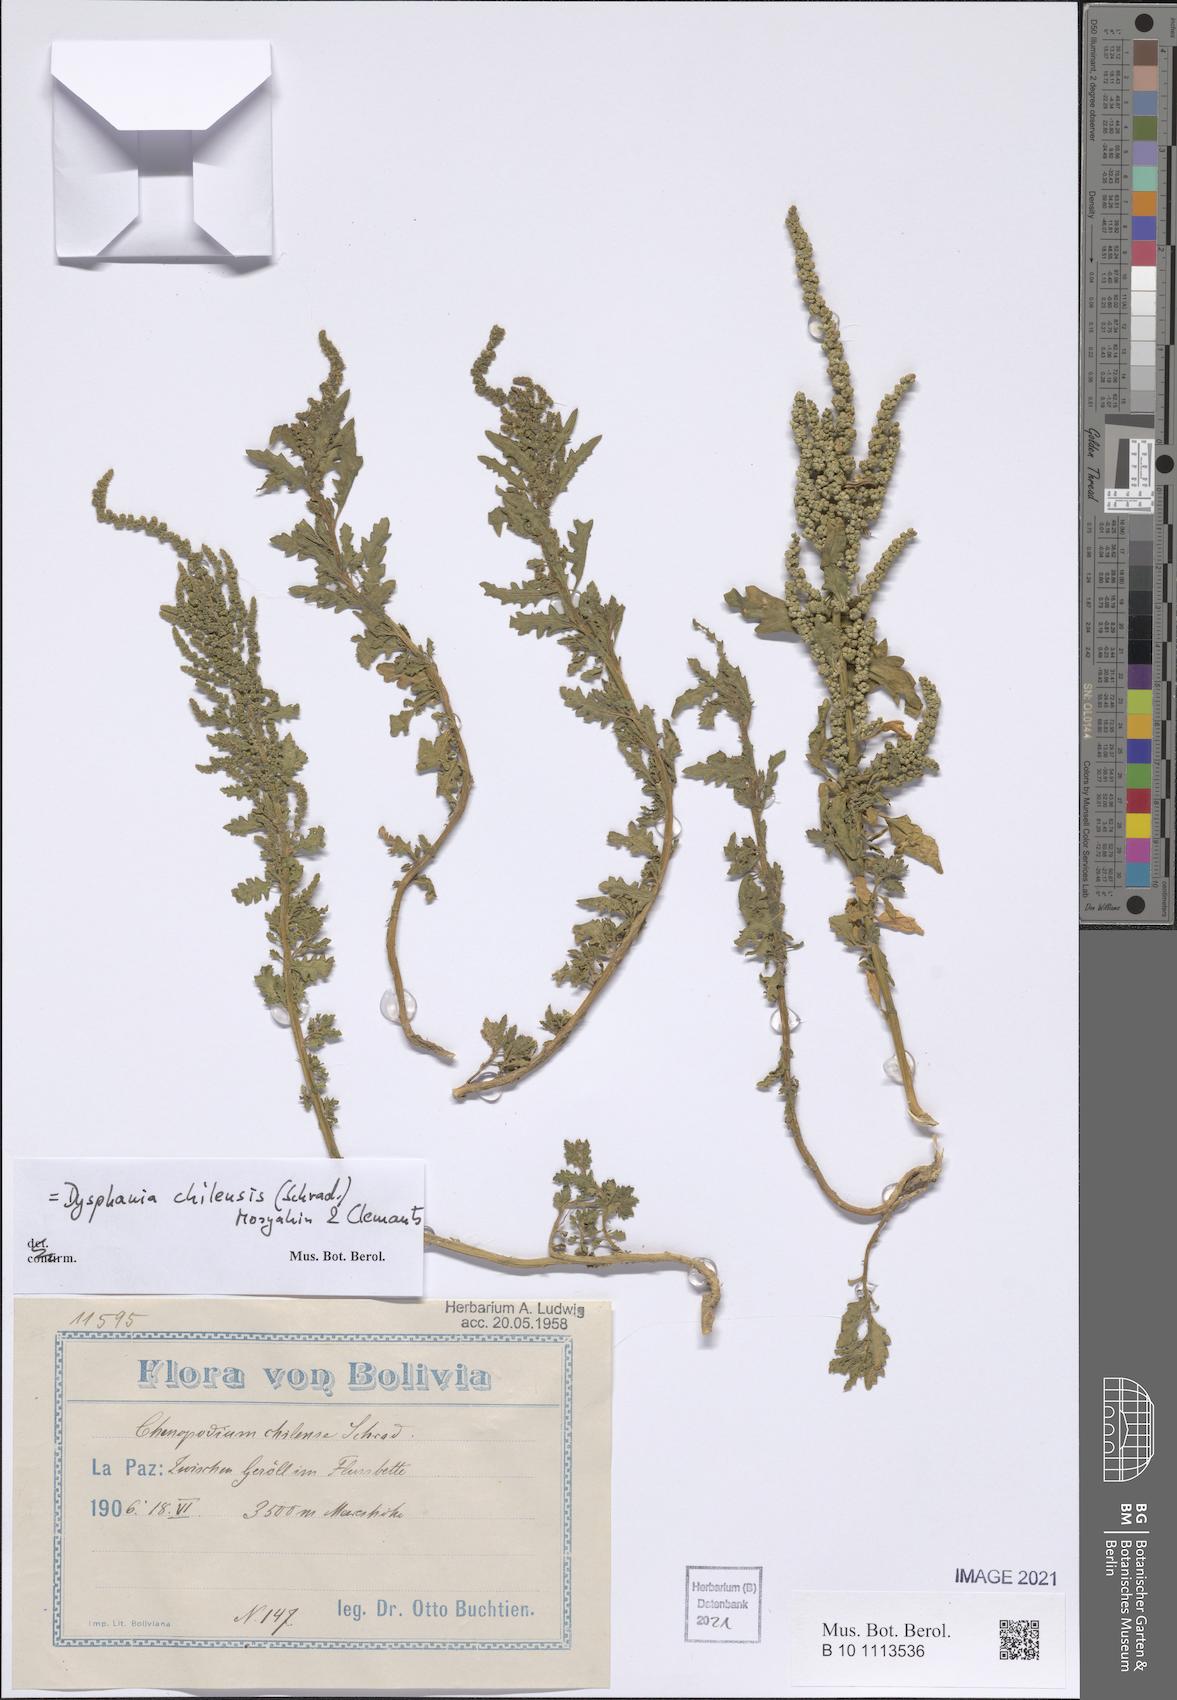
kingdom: Plantae
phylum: Tracheophyta
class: Magnoliopsida
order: Caryophyllales
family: Amaranthaceae
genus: Dysphania
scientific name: Dysphania chilensis
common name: Chilean wormseed
